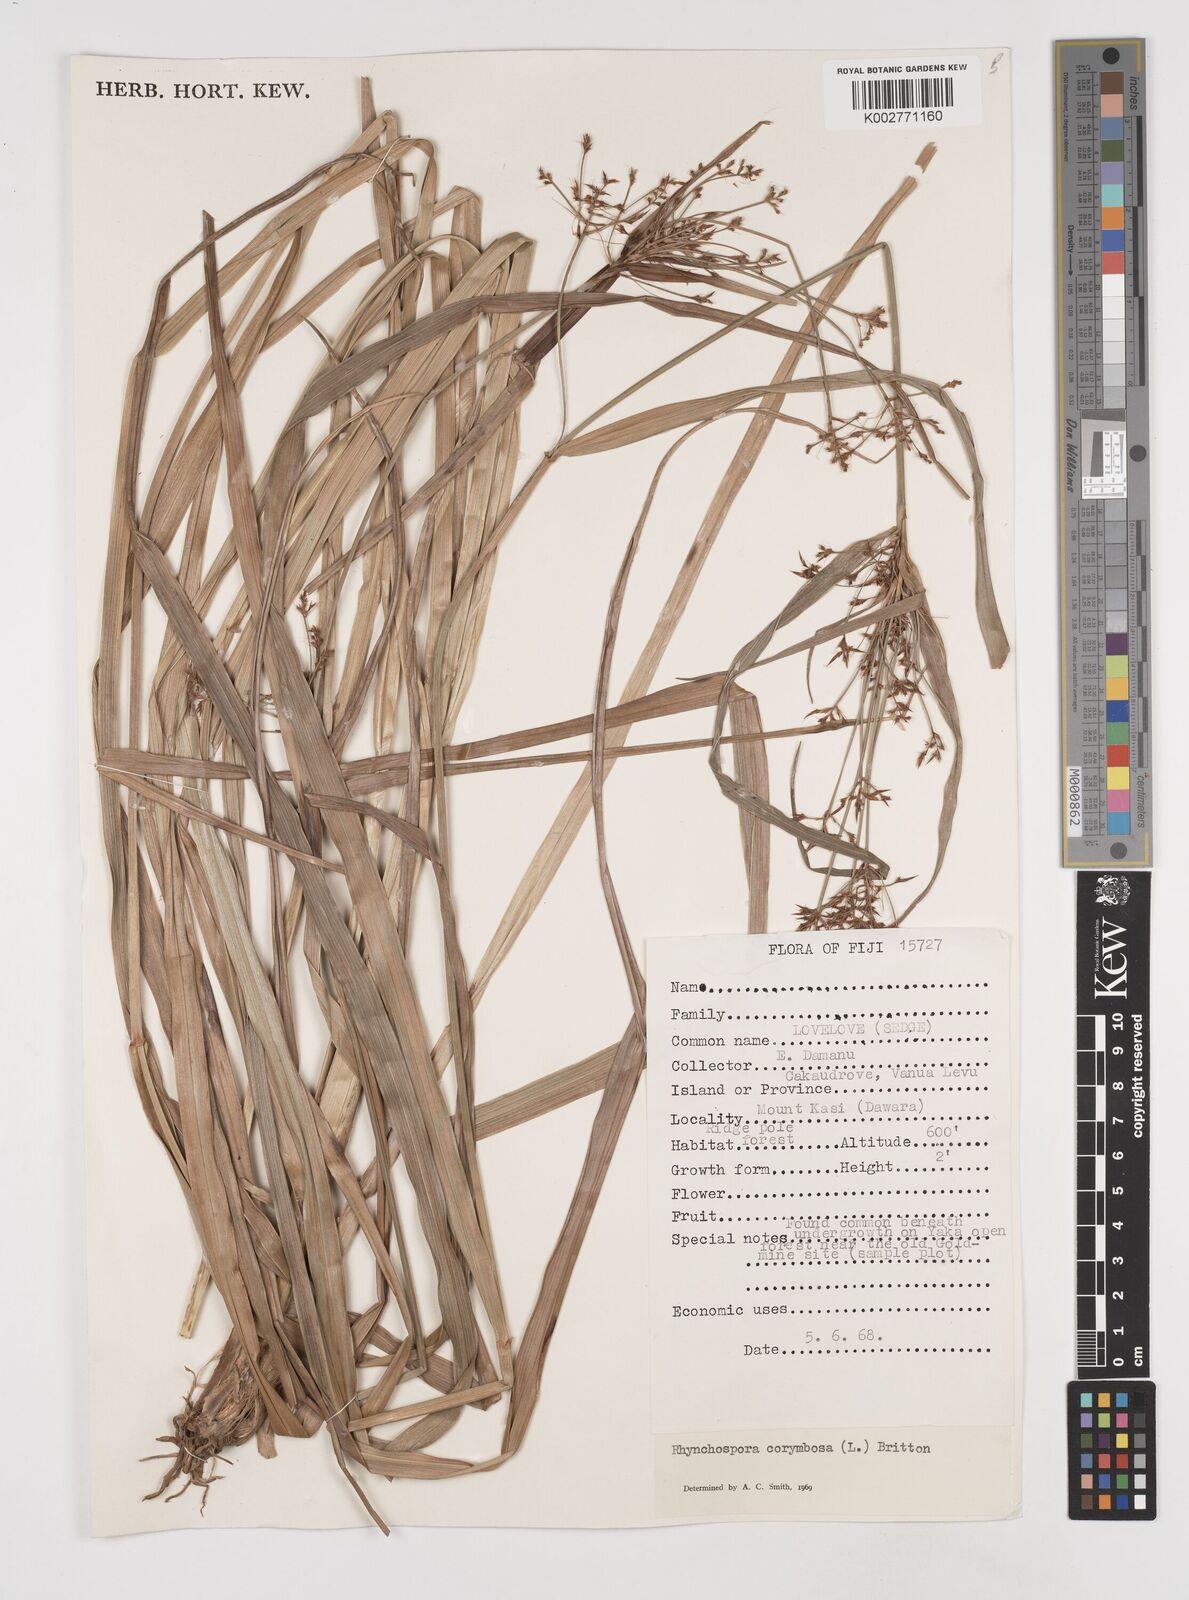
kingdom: Plantae
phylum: Tracheophyta
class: Liliopsida
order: Poales
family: Cyperaceae
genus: Rhynchospora
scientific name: Rhynchospora corymbosa
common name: Golden beak sedge
